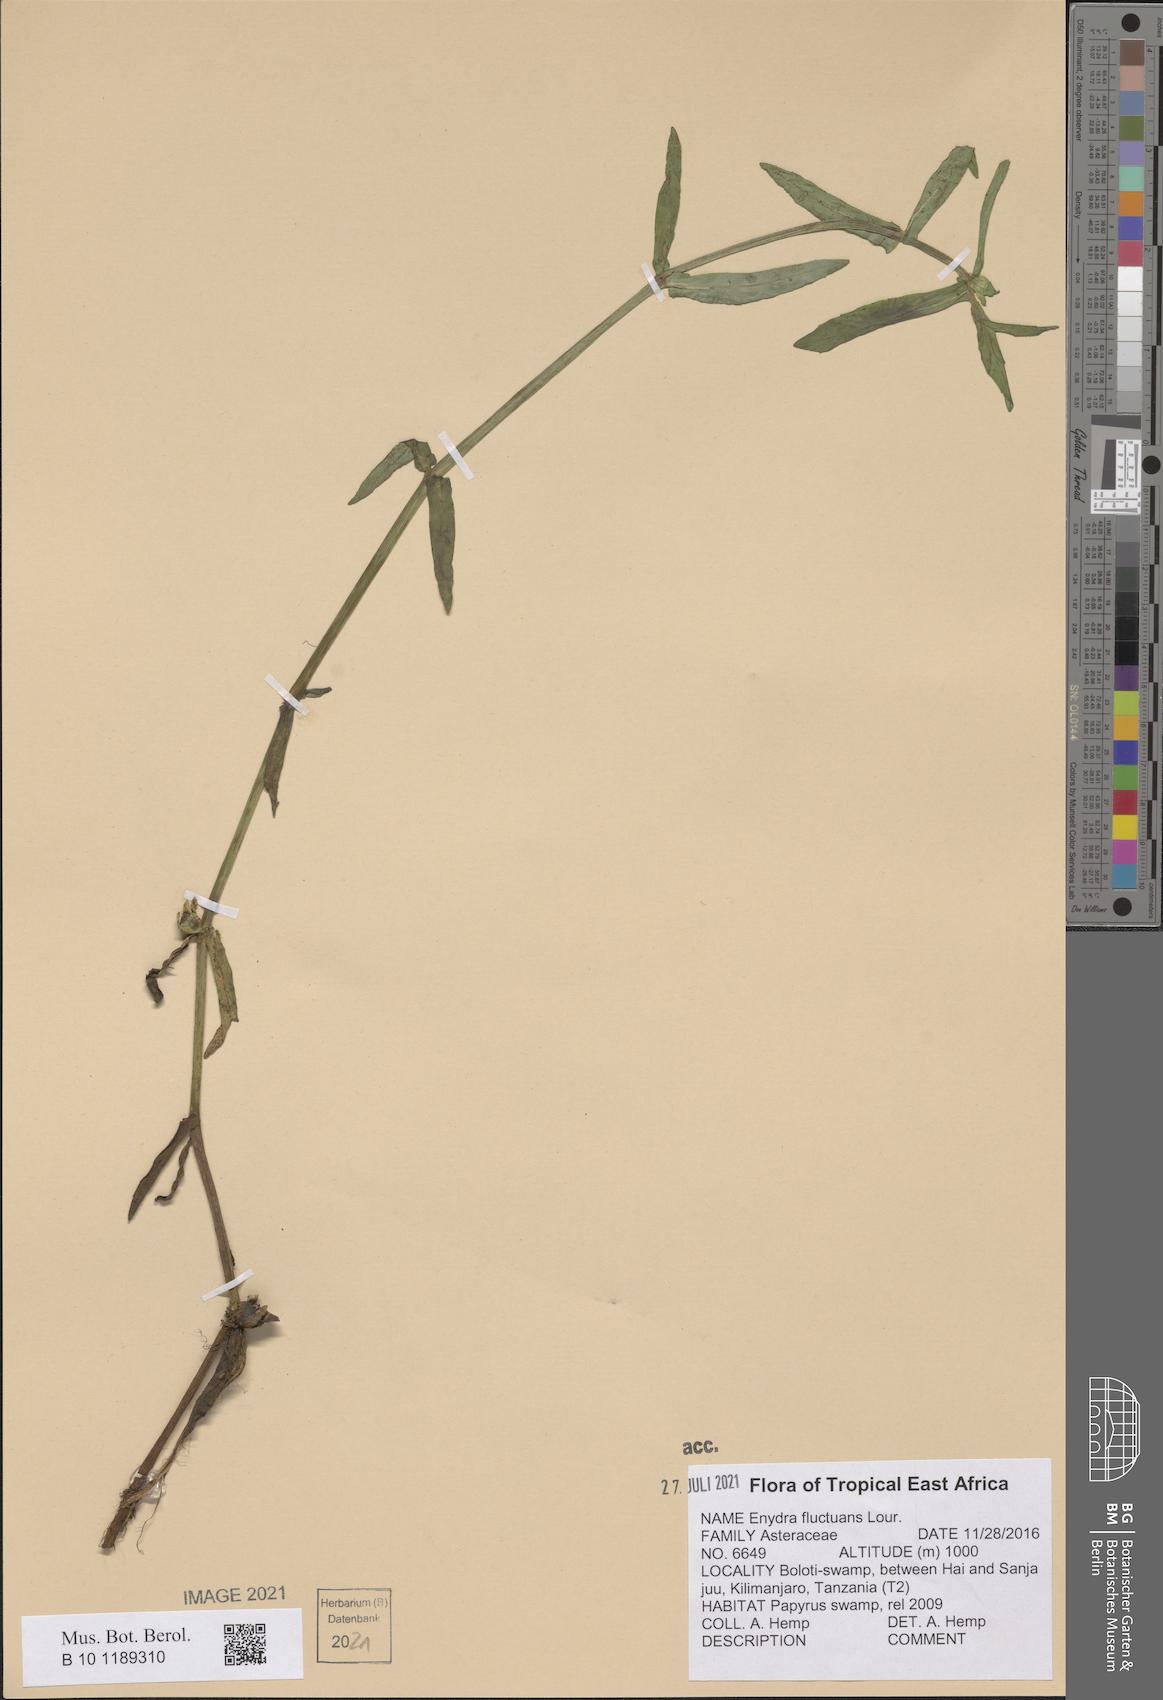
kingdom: Plantae
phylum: Tracheophyta
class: Magnoliopsida
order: Asterales
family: Asteraceae
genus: Enydra
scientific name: Enydra fluctuans
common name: Buffalo spinach
